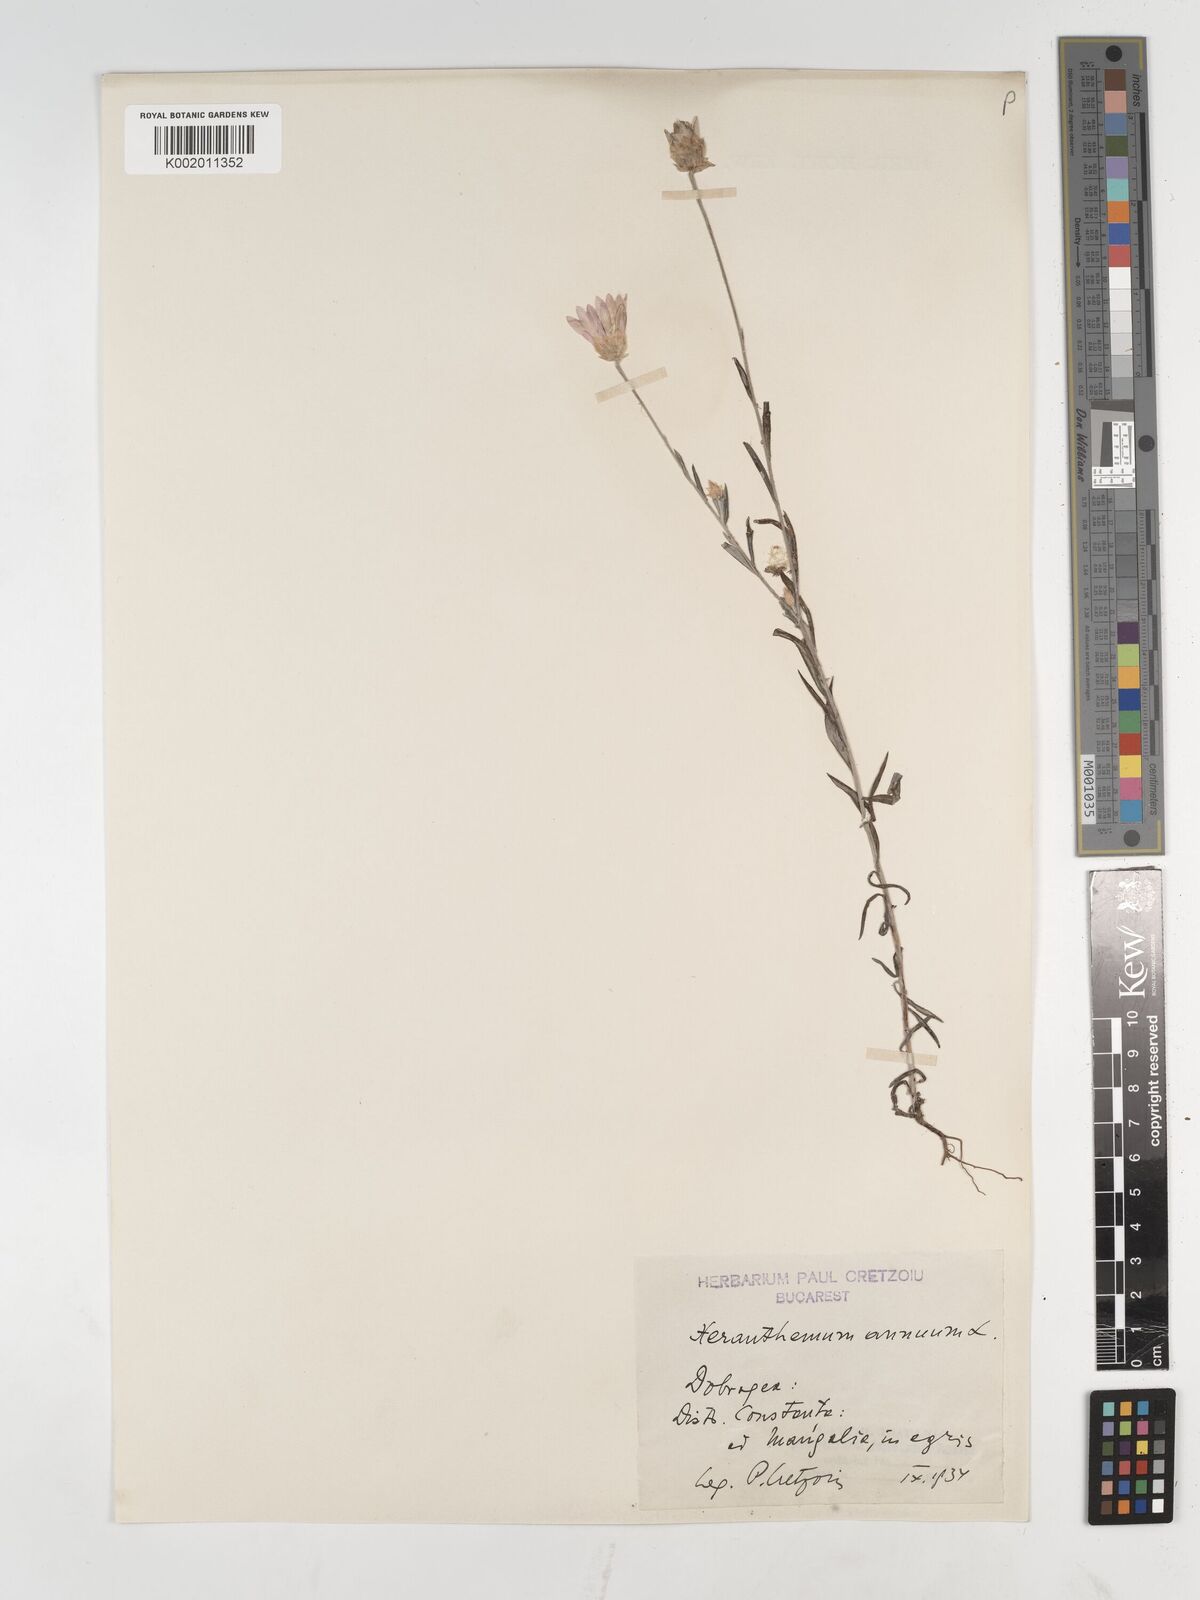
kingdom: Plantae
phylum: Tracheophyta
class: Magnoliopsida
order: Asterales
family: Asteraceae
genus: Xeranthemum
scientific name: Xeranthemum annuum
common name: Immortelle
